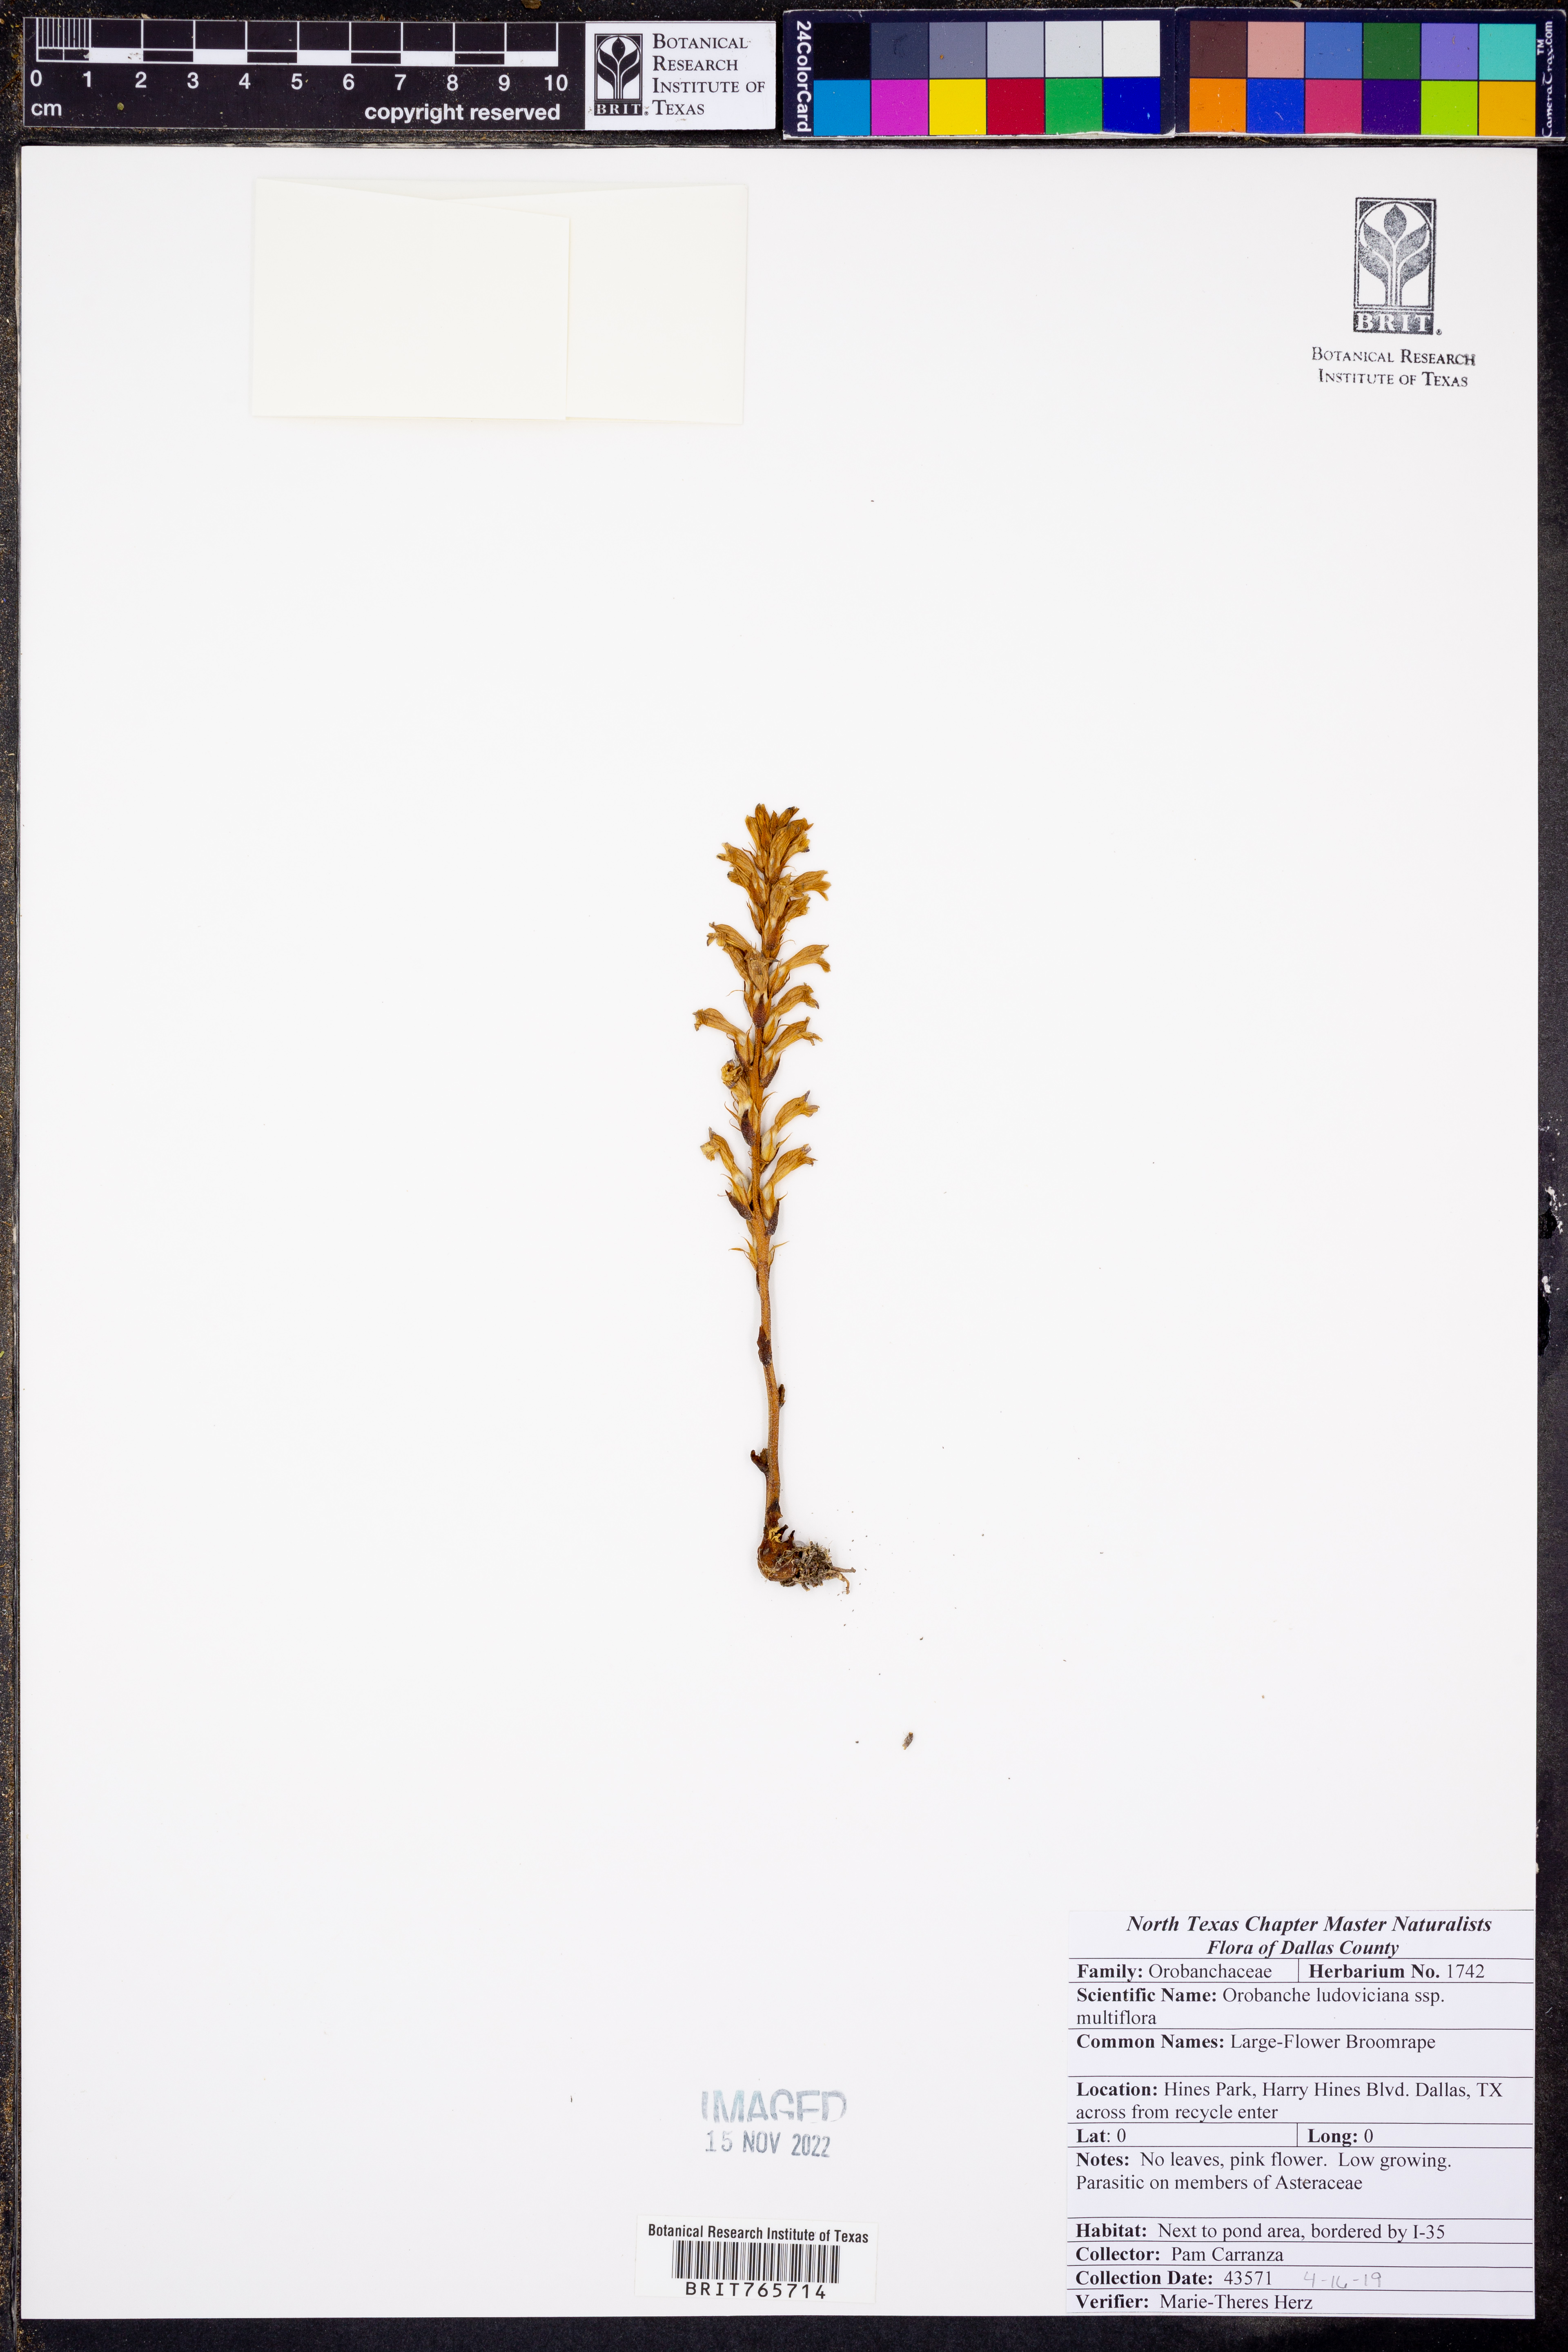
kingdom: Plantae
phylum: Tracheophyta
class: Magnoliopsida
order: Lamiales
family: Orobanchaceae
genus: Aphyllon
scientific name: Aphyllon multiflorum
